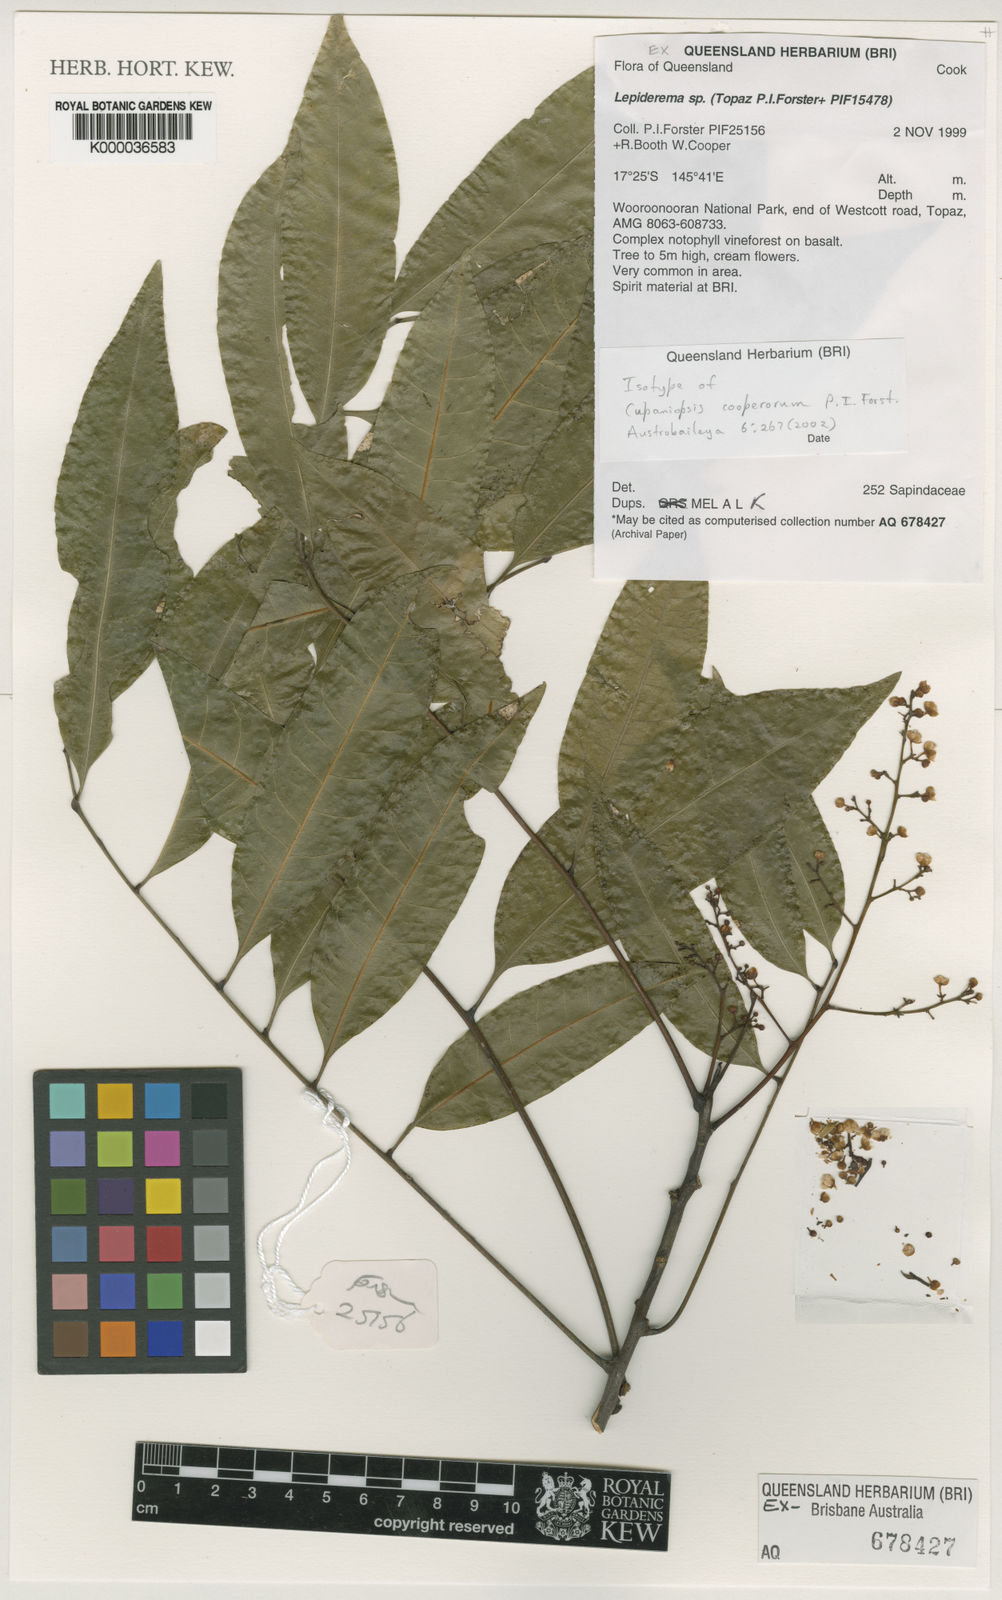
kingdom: Plantae
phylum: Tracheophyta
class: Magnoliopsida
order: Sapindales
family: Sapindaceae
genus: Cupaniopsis
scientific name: Cupaniopsis cooperorum
